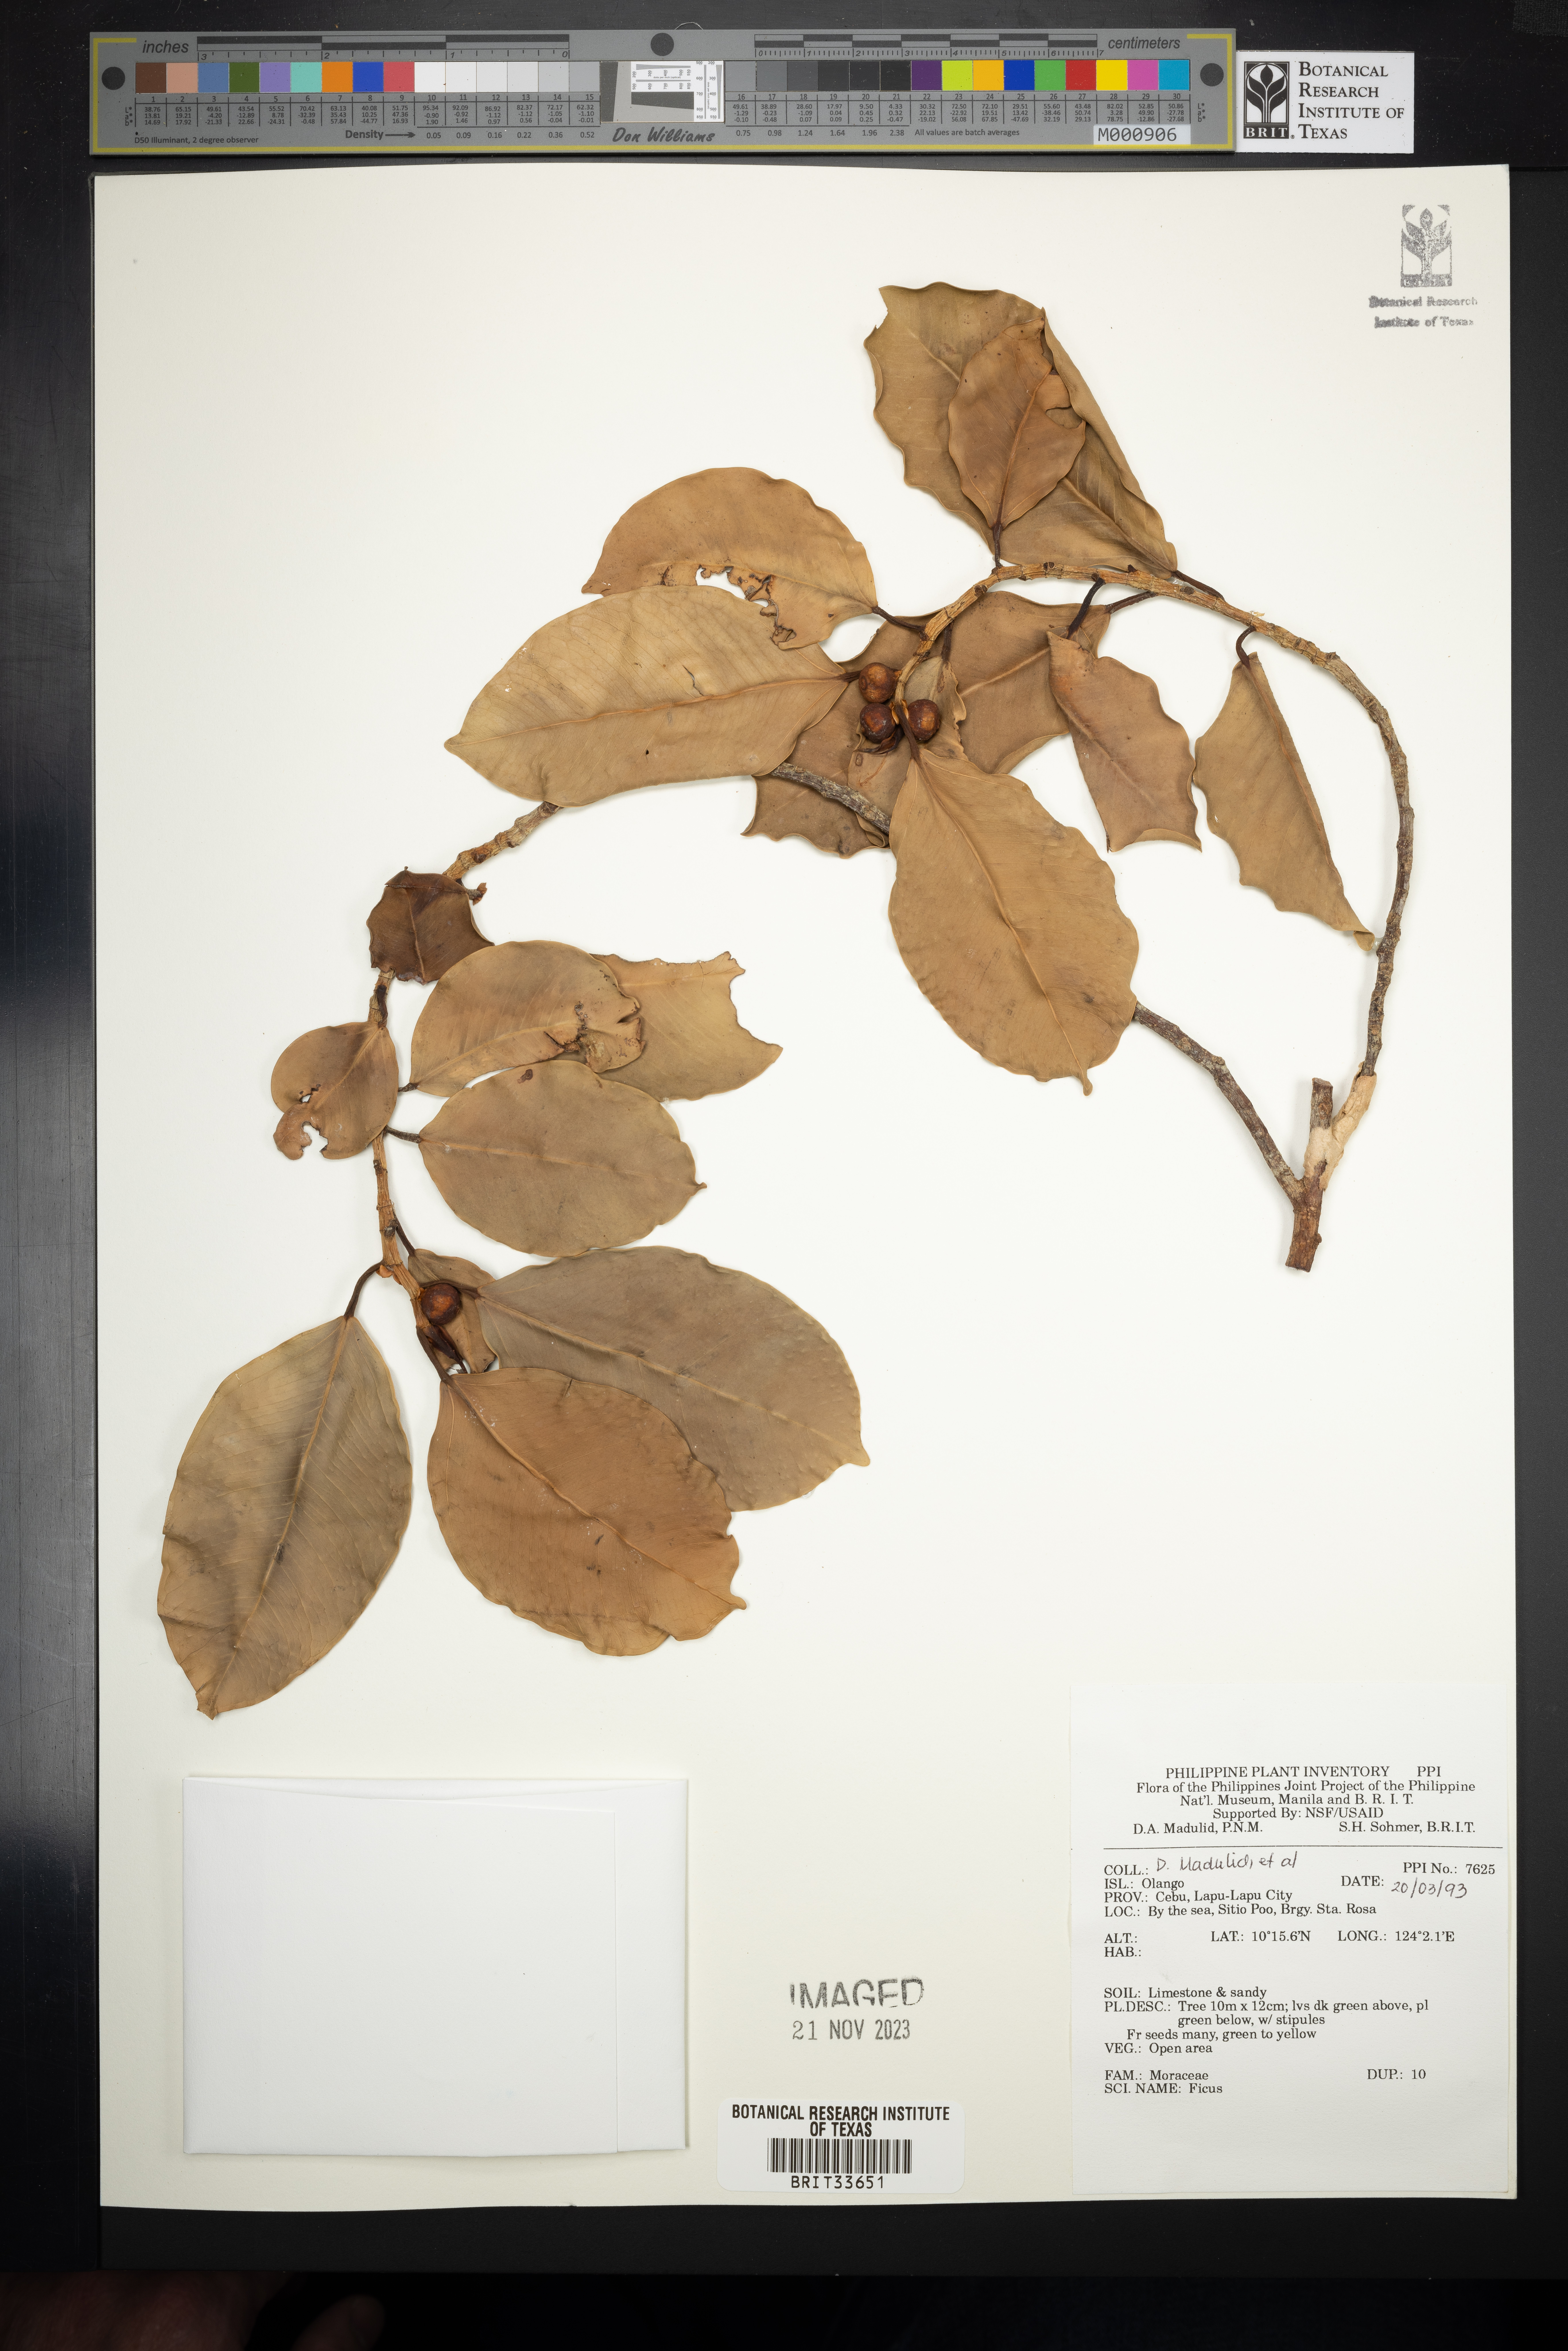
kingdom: Plantae
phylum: Tracheophyta
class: Magnoliopsida
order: Rosales
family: Moraceae
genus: Ficus
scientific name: Ficus
